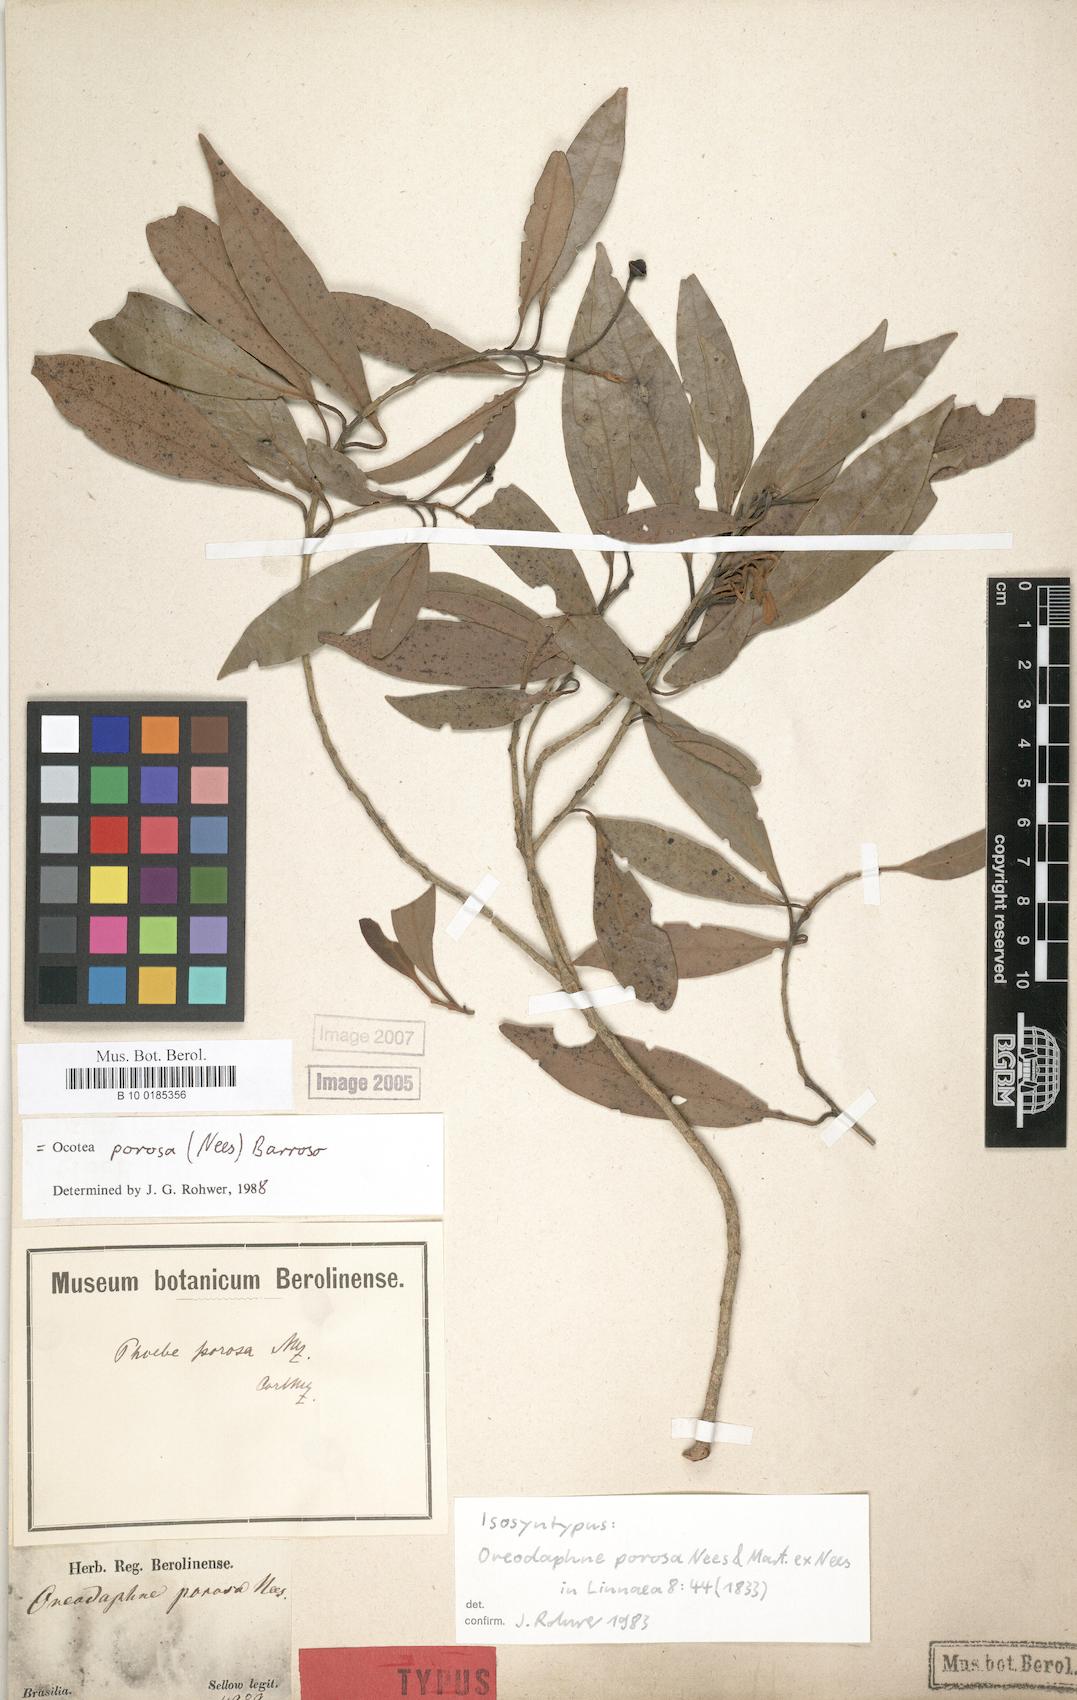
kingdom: Plantae
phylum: Tracheophyta
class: Magnoliopsida
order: Laurales
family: Lauraceae
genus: Ocotea
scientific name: Ocotea porosa
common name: Brazilian-walnut
